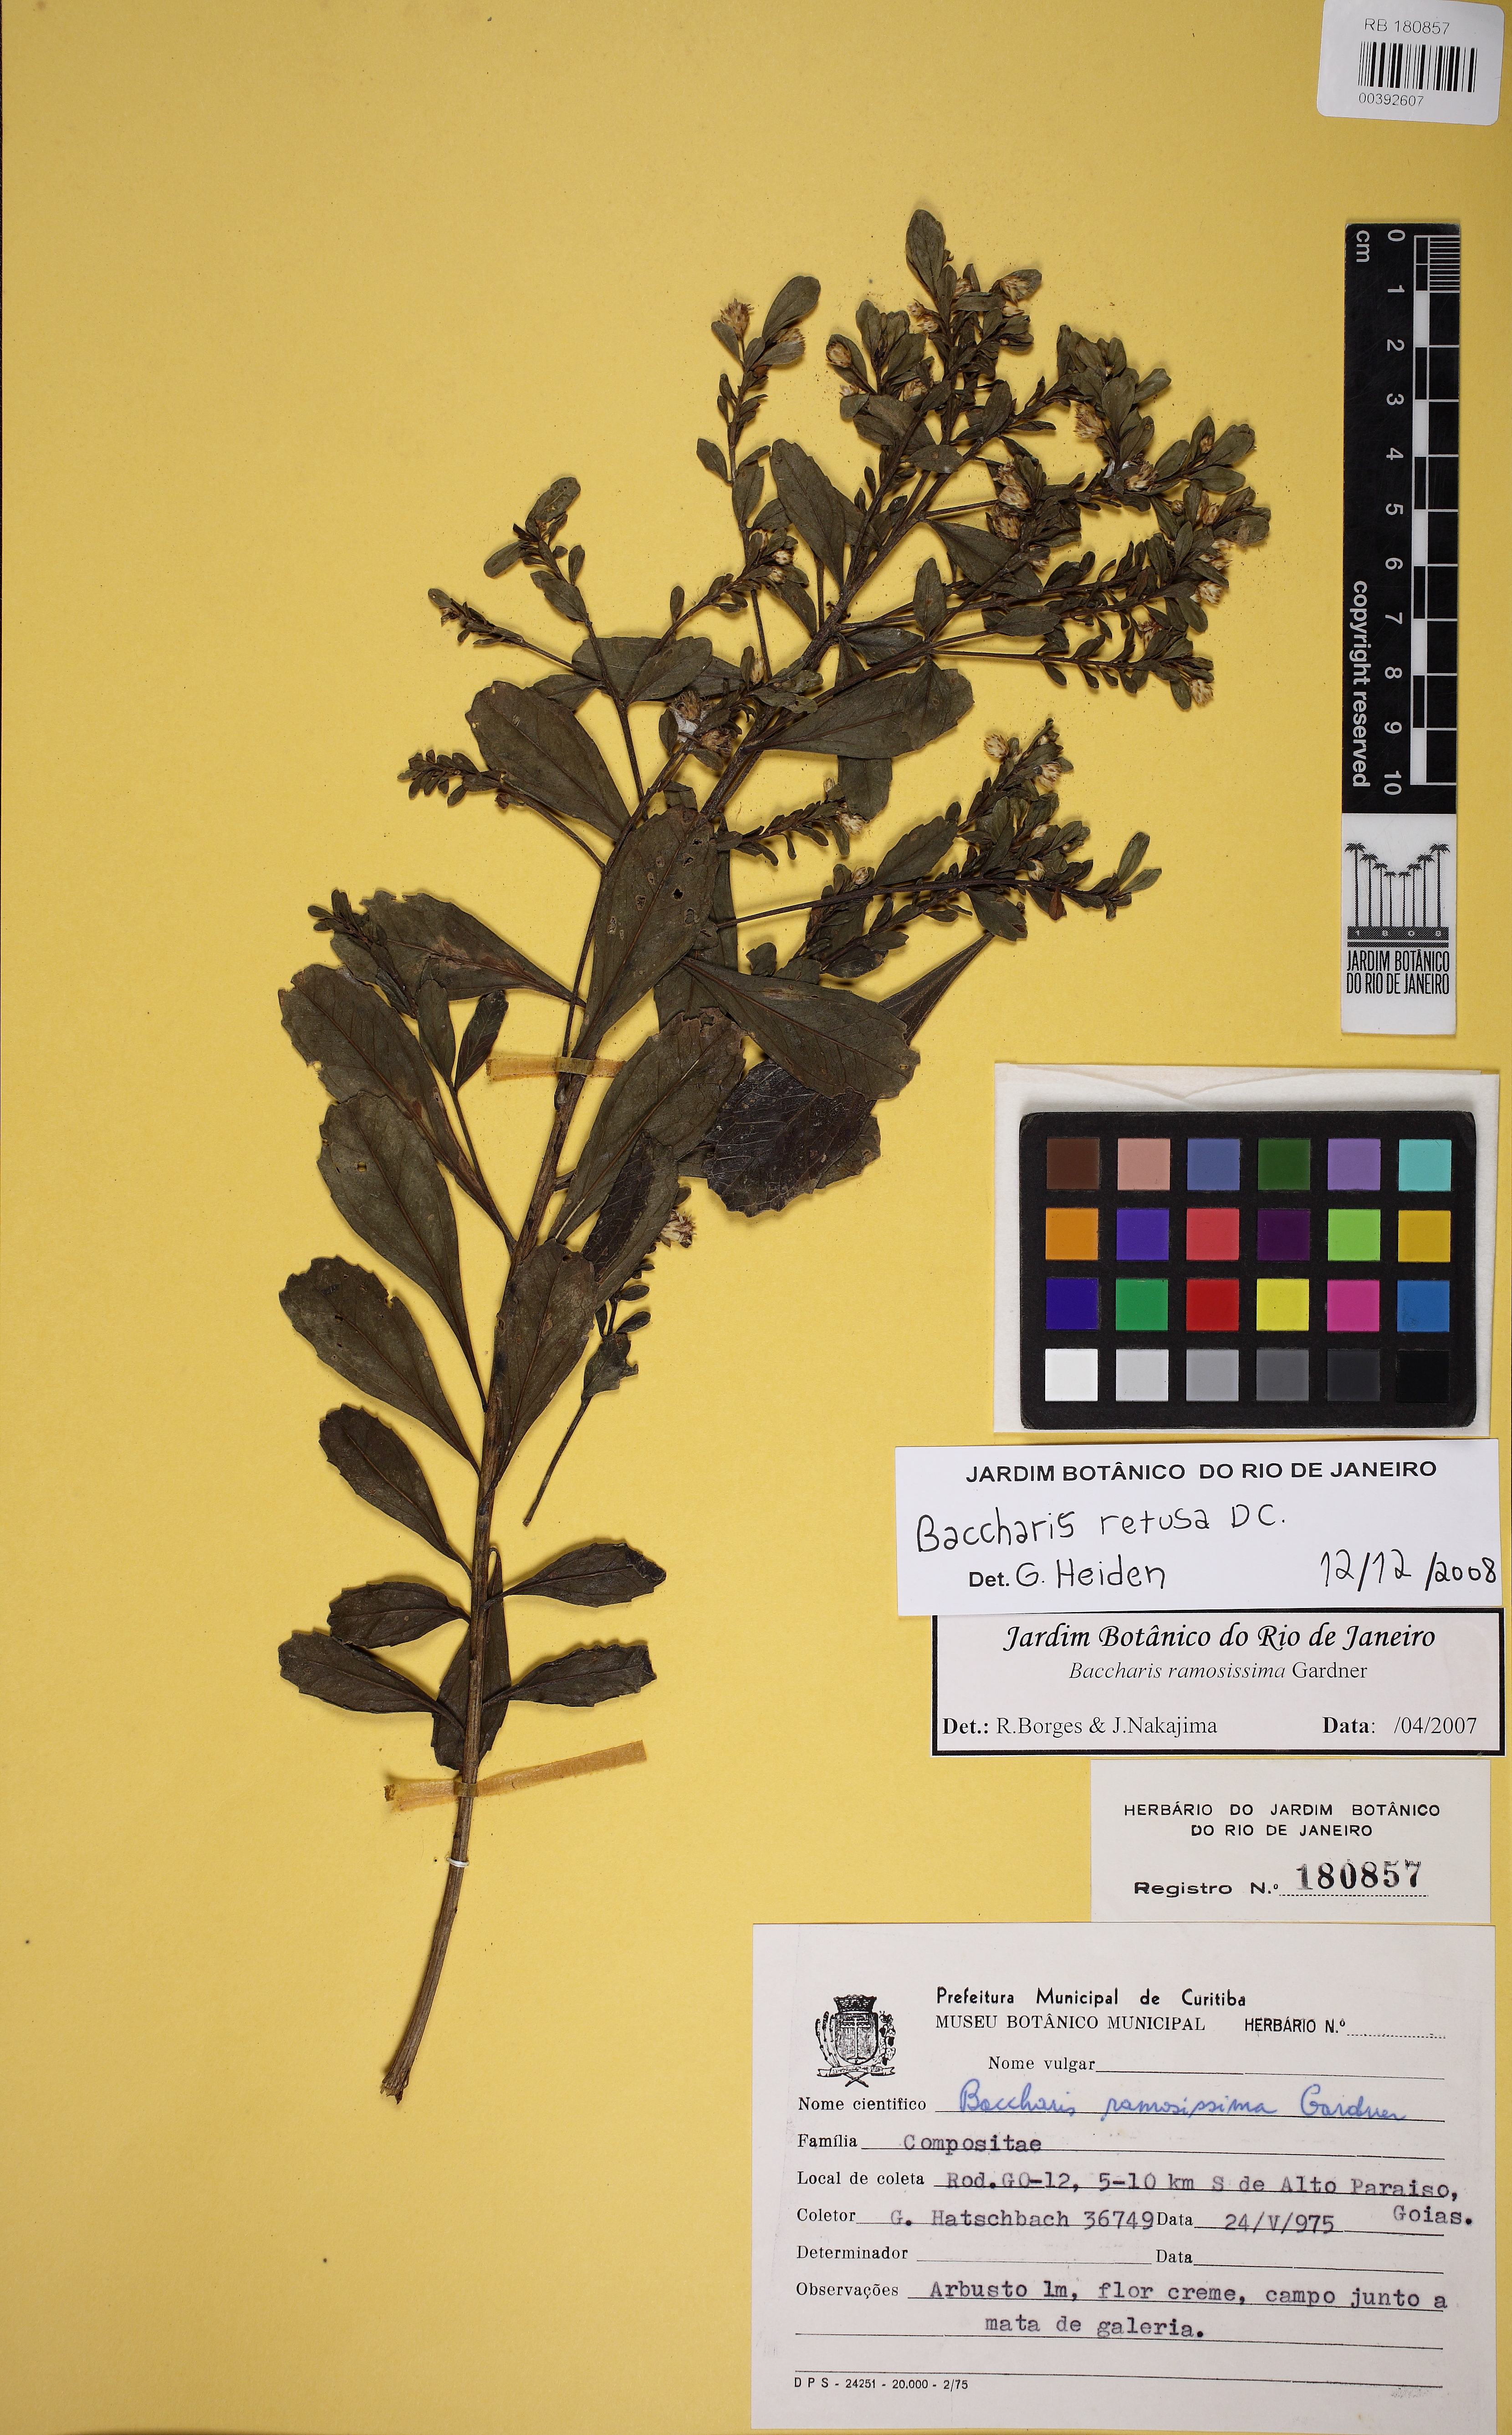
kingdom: Plantae
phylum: Tracheophyta
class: Magnoliopsida
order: Asterales
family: Asteraceae
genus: Baccharis
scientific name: Baccharis retusa
